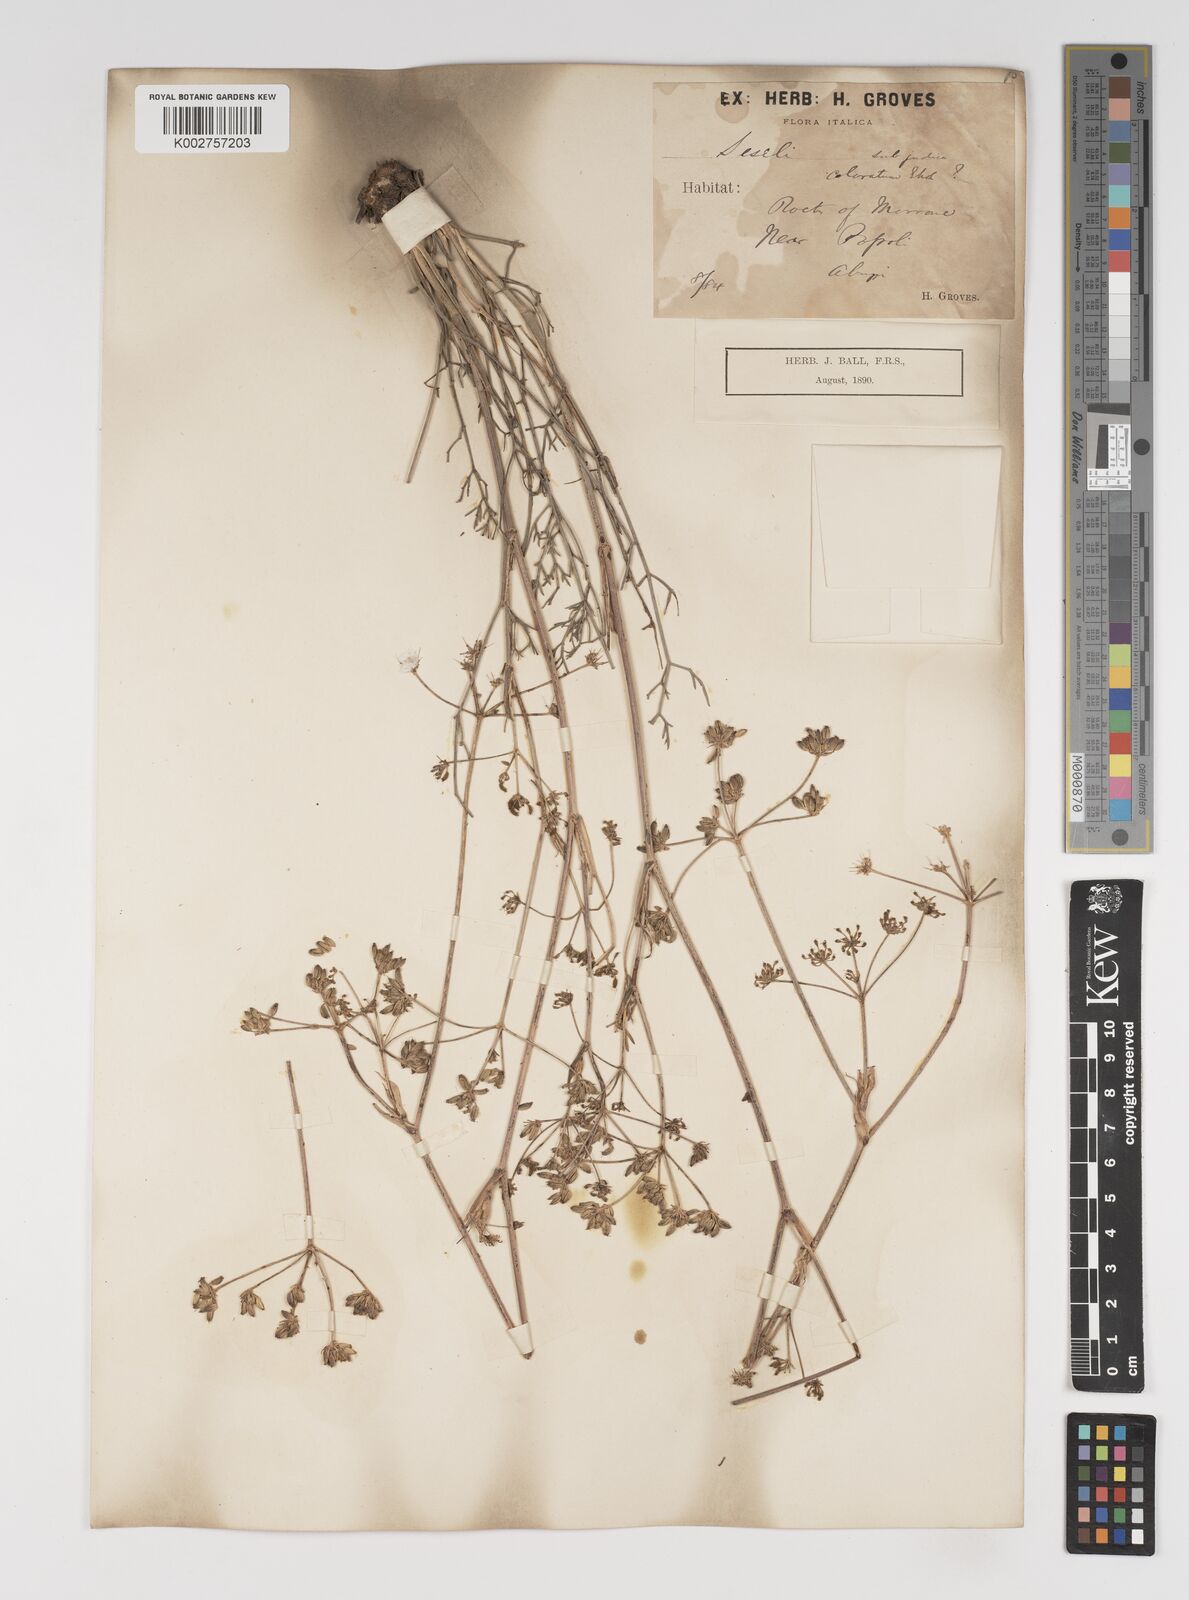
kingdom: Plantae
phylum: Tracheophyta
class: Magnoliopsida
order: Apiales
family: Apiaceae
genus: Seseli
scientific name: Seseli annuum
